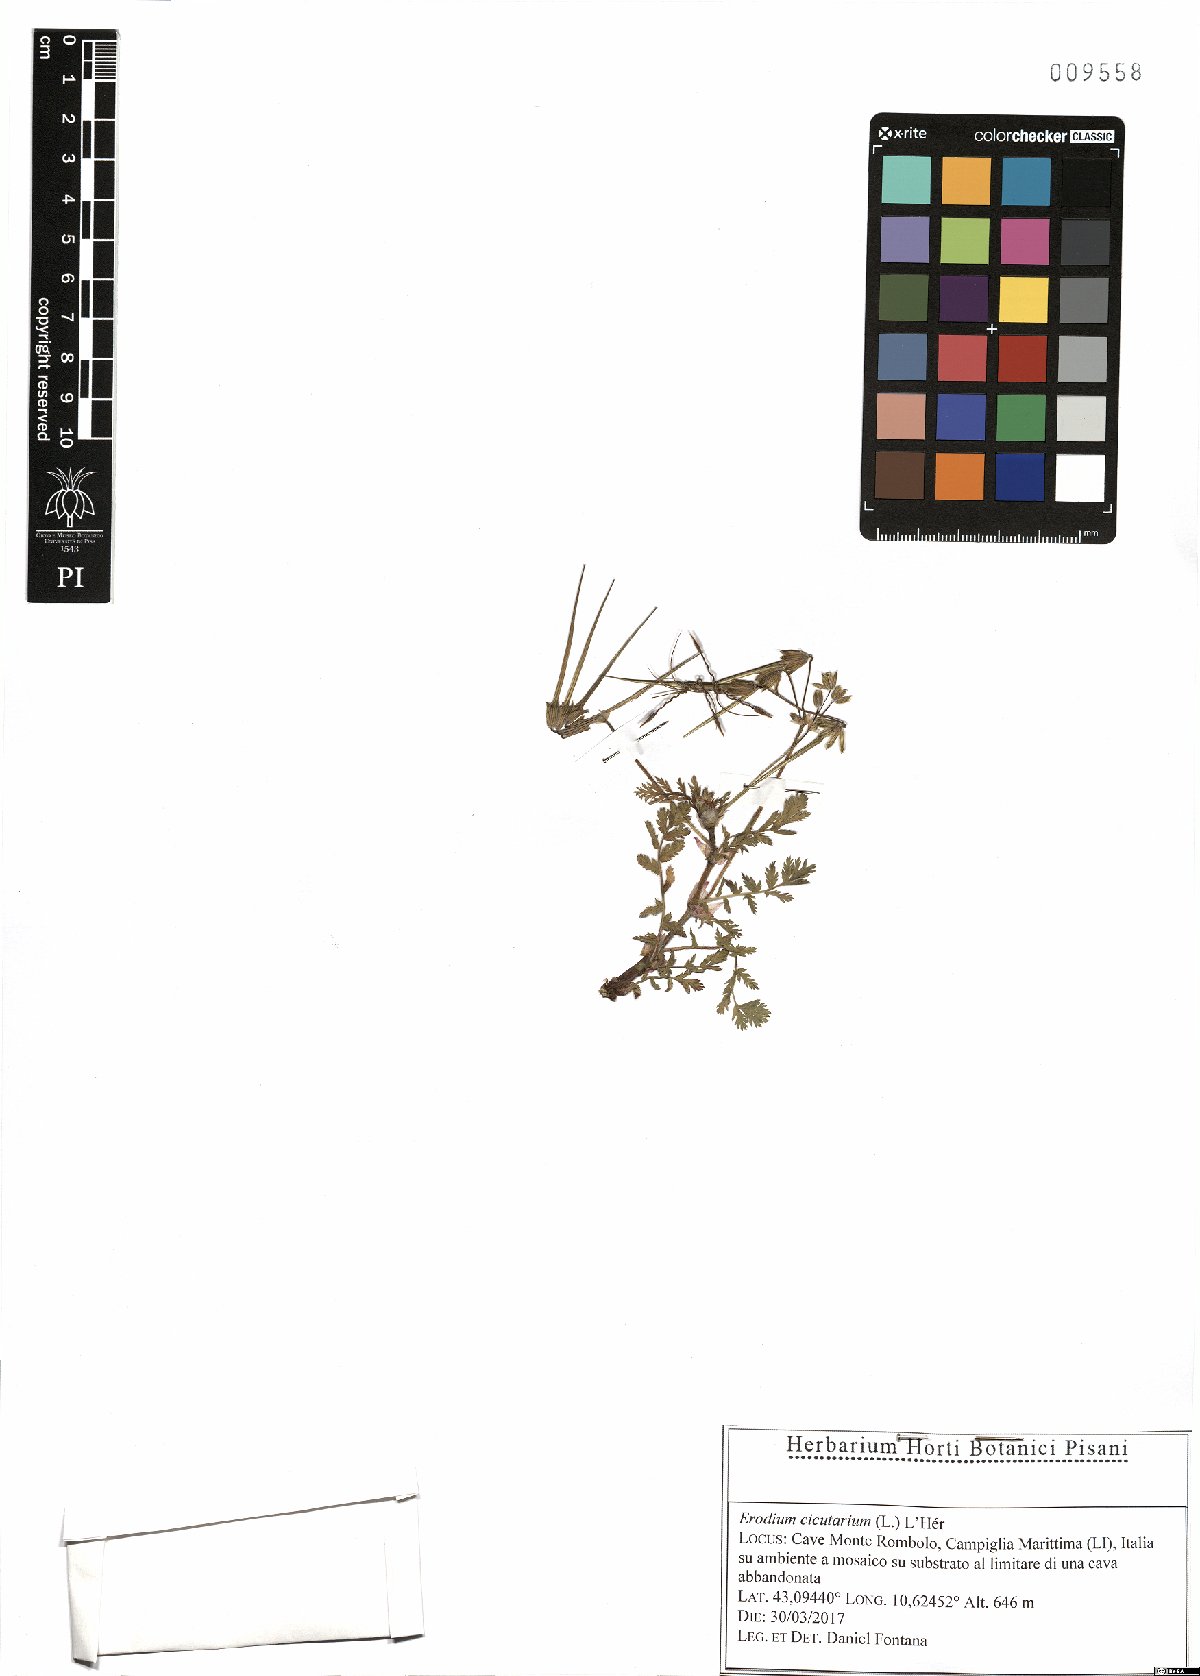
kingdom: Plantae
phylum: Tracheophyta
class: Magnoliopsida
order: Geraniales
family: Geraniaceae
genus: Erodium
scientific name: Erodium cicutarium
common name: Common stork's-bill
